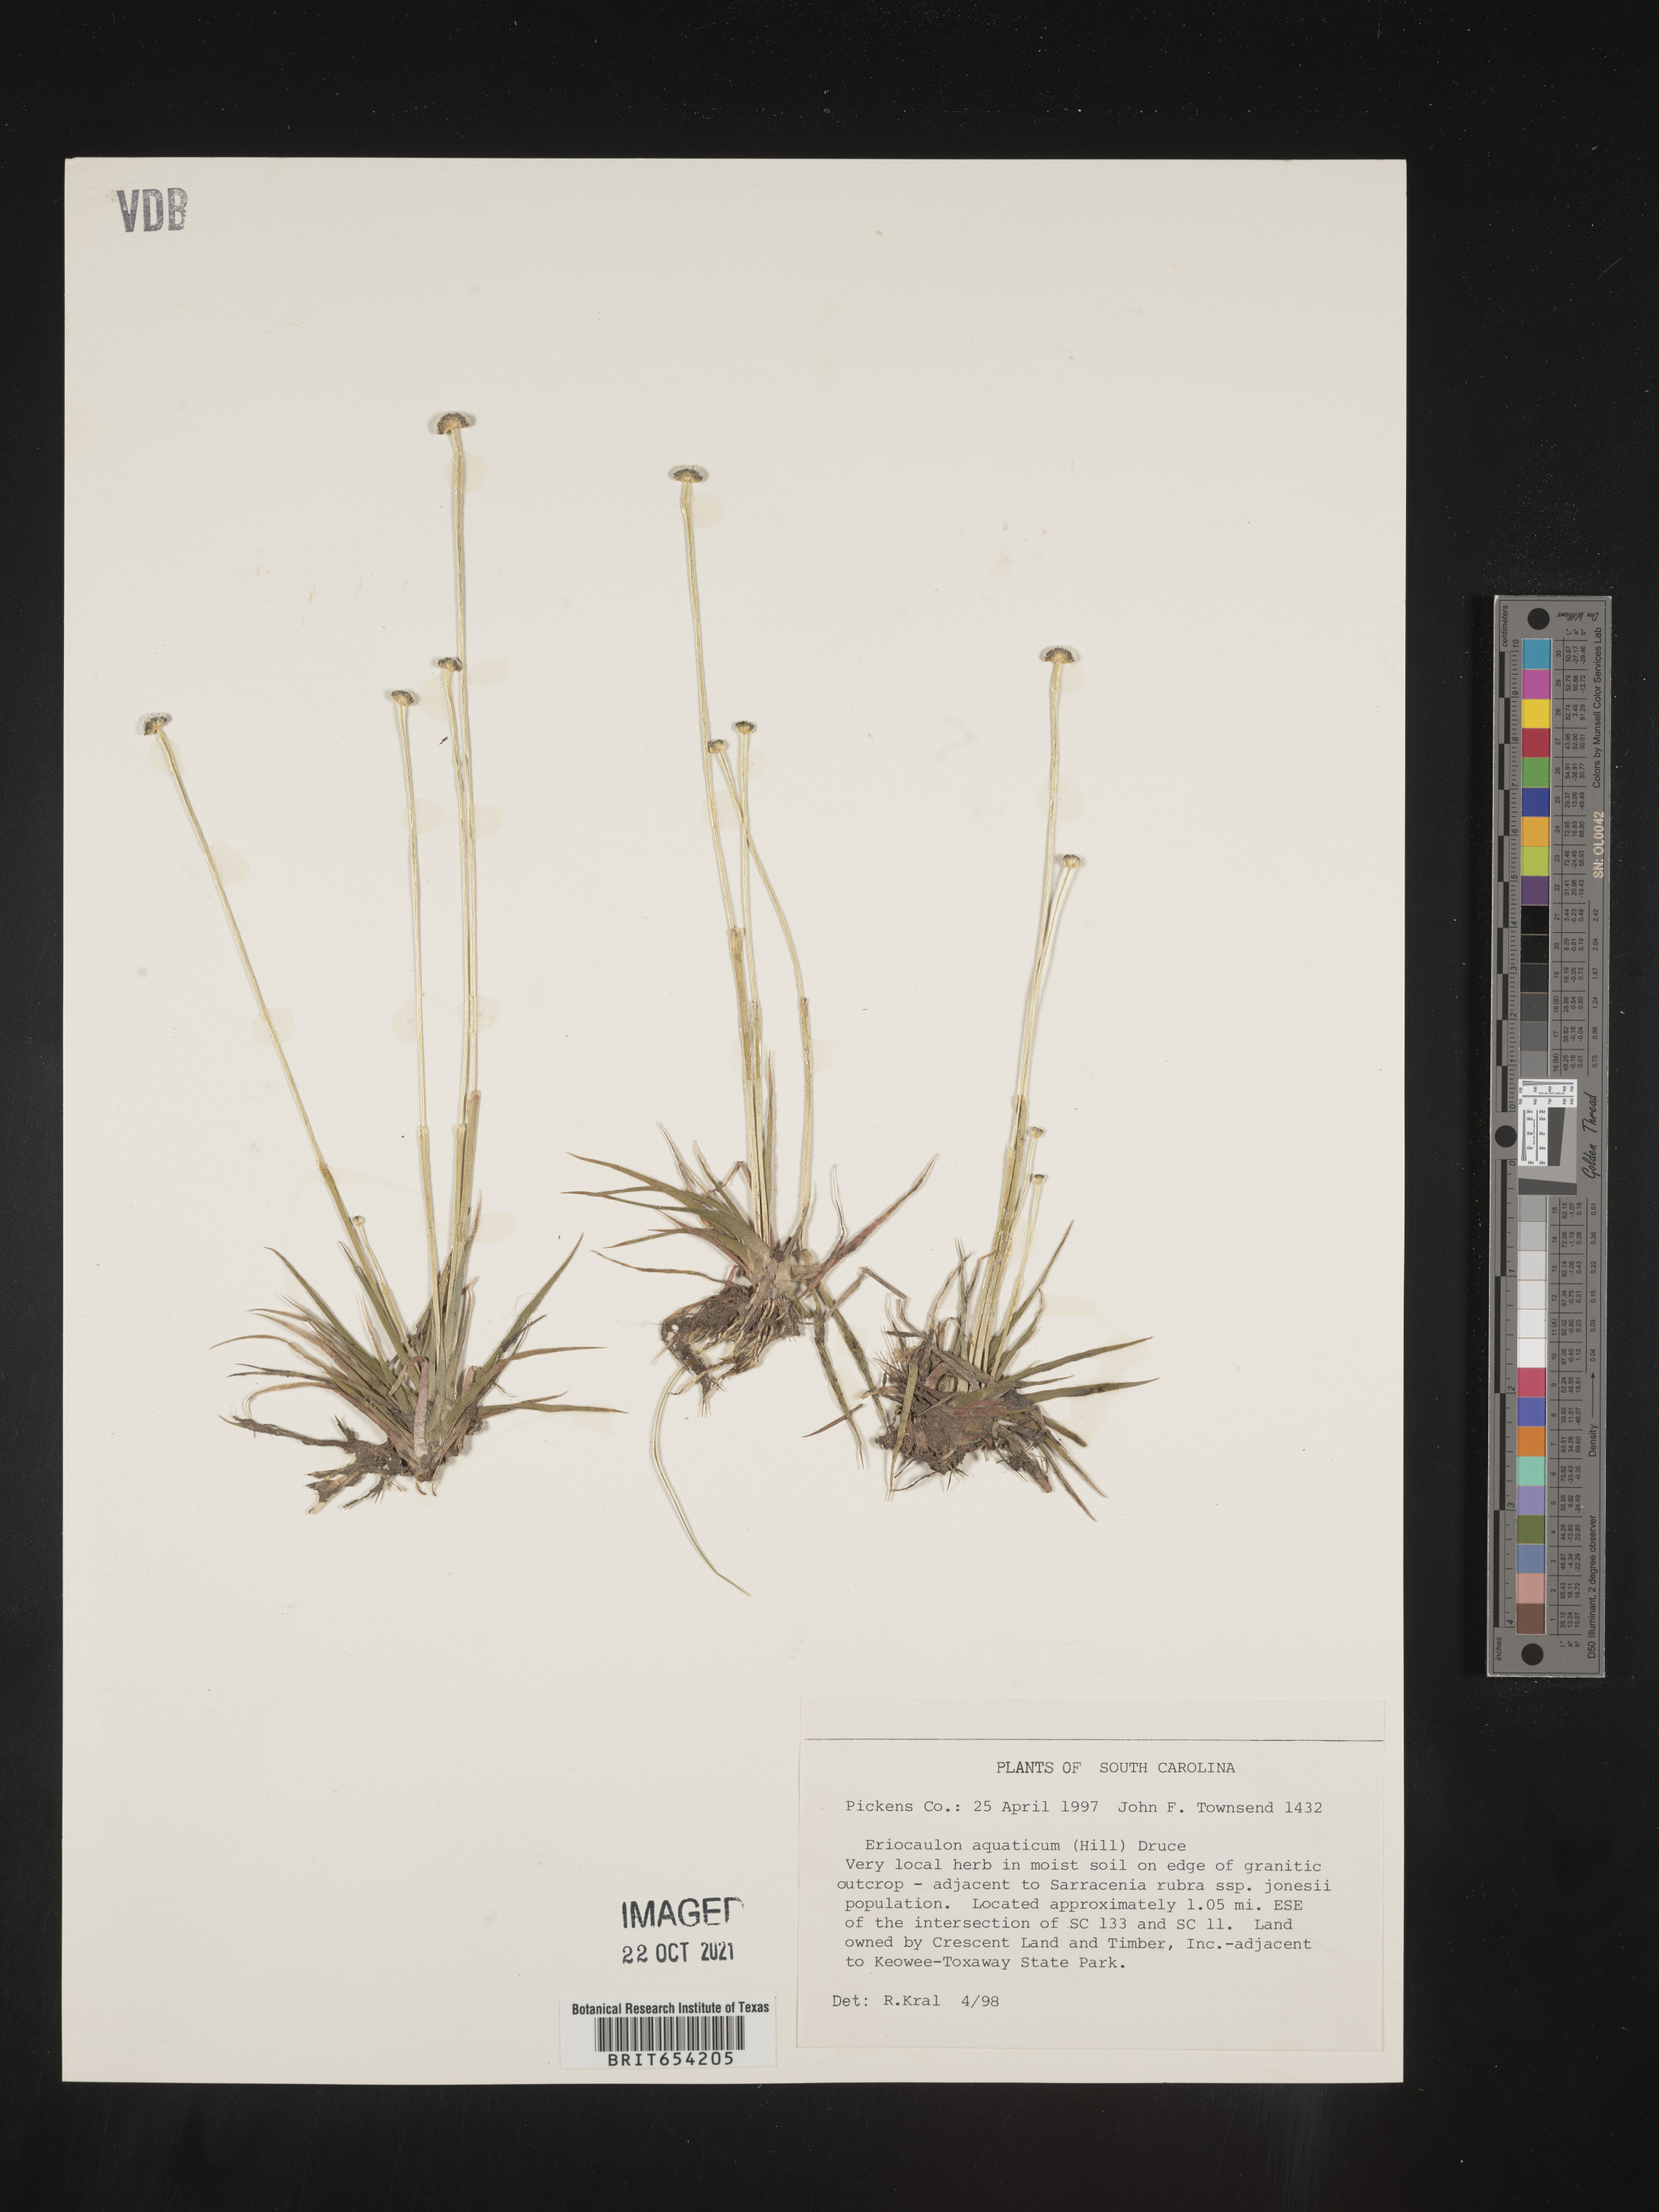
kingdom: Plantae
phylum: Tracheophyta
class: Liliopsida
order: Poales
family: Eriocaulaceae
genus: Eriocaulon
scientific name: Eriocaulon aquaticum
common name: Pipewort
